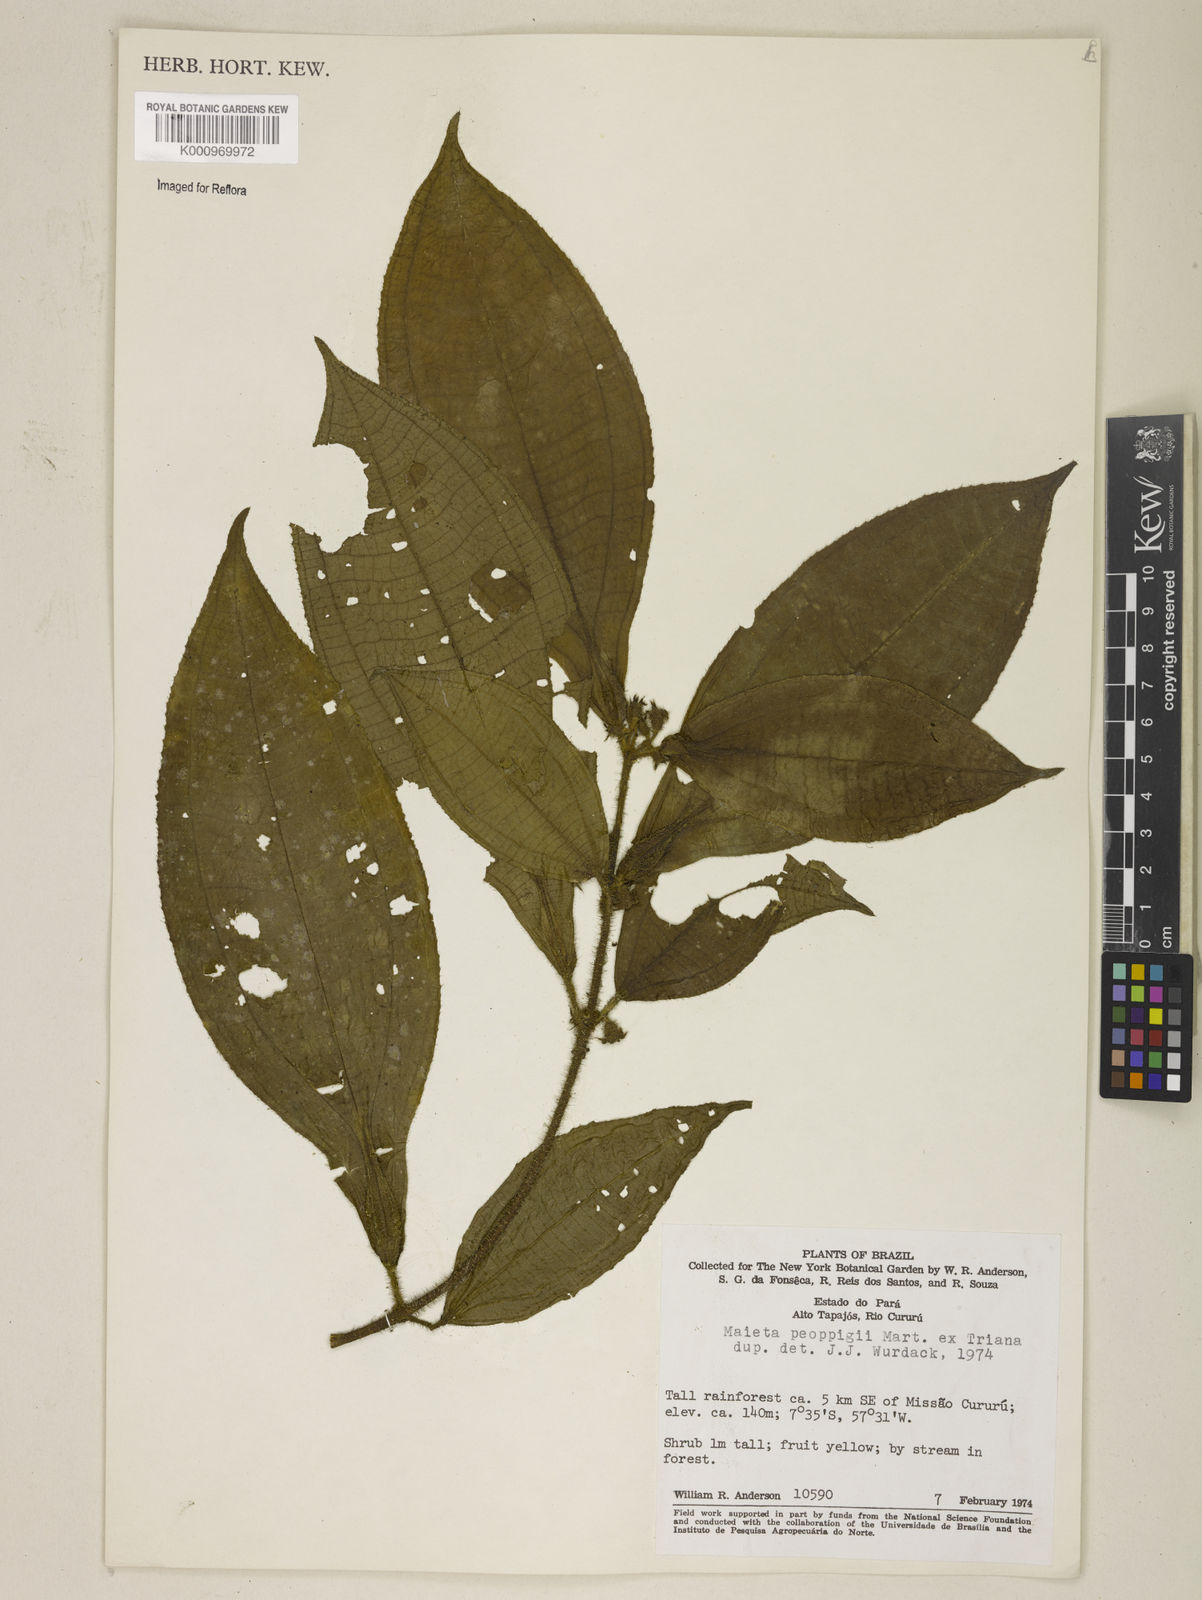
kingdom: Plantae
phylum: Tracheophyta
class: Magnoliopsida
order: Myrtales
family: Melastomataceae
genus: Miconia
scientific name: Miconia alternidomatia
